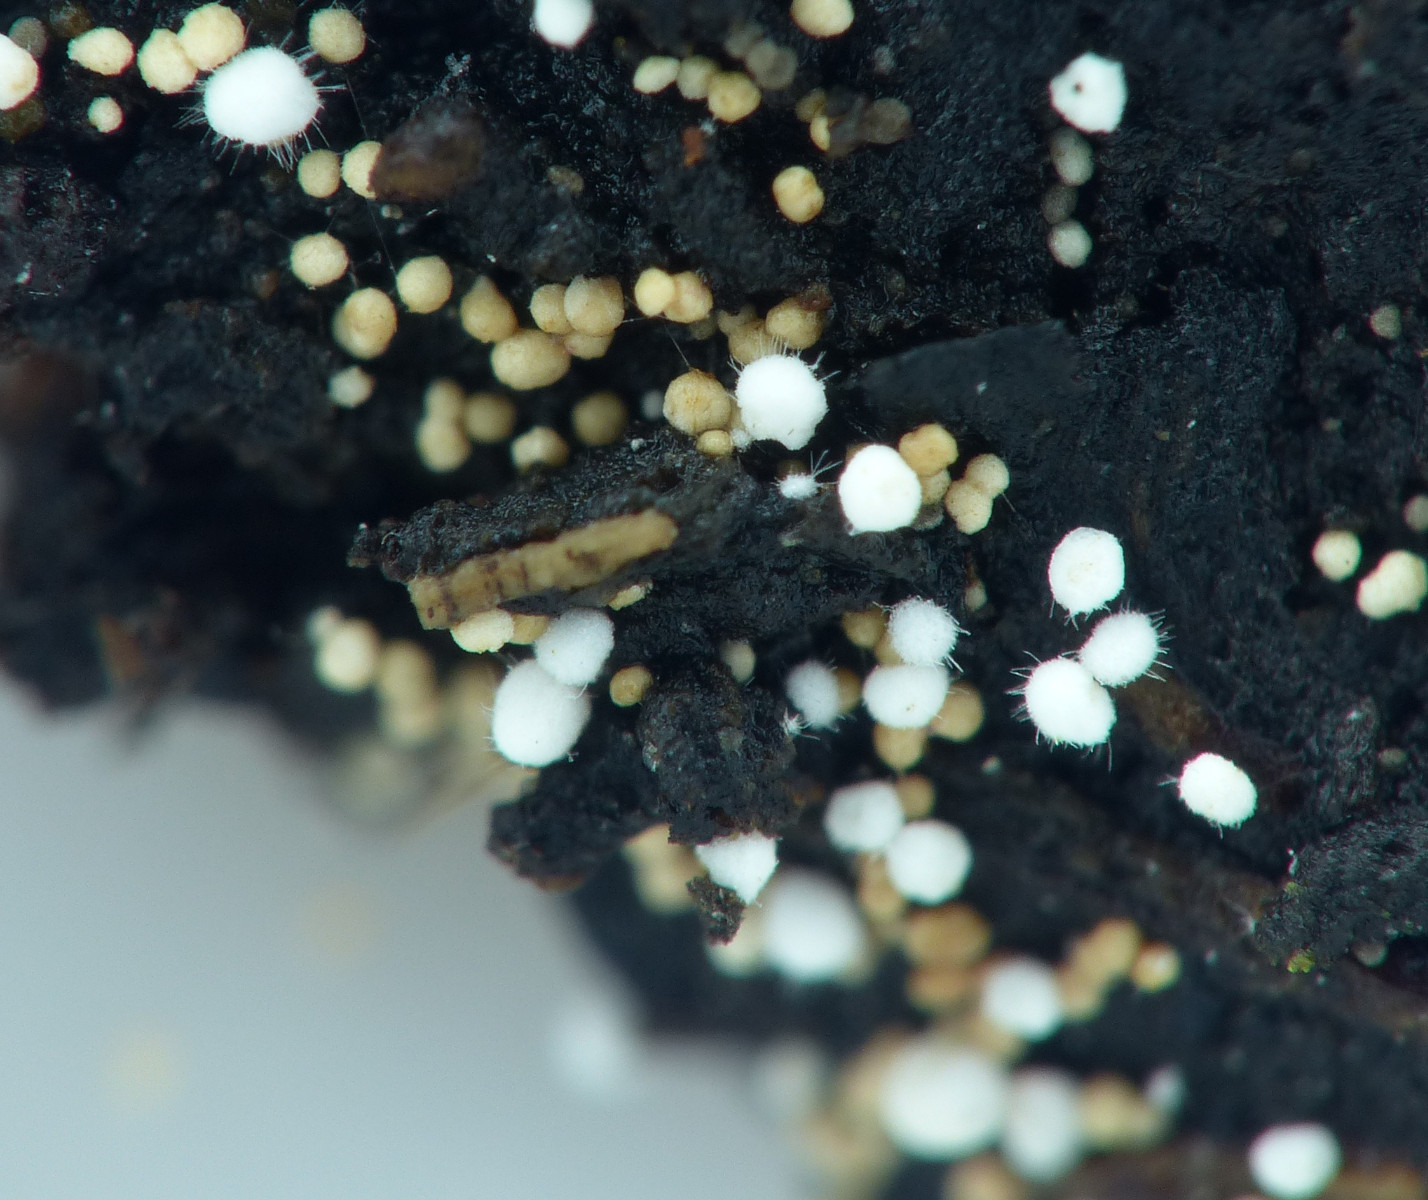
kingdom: Fungi
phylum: Basidiomycota
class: Agaricomycetes
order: Trechisporales
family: Hydnodontaceae
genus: Subulicystidium
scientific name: Subulicystidium longisporum
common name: almindelig pigtrådshinde
